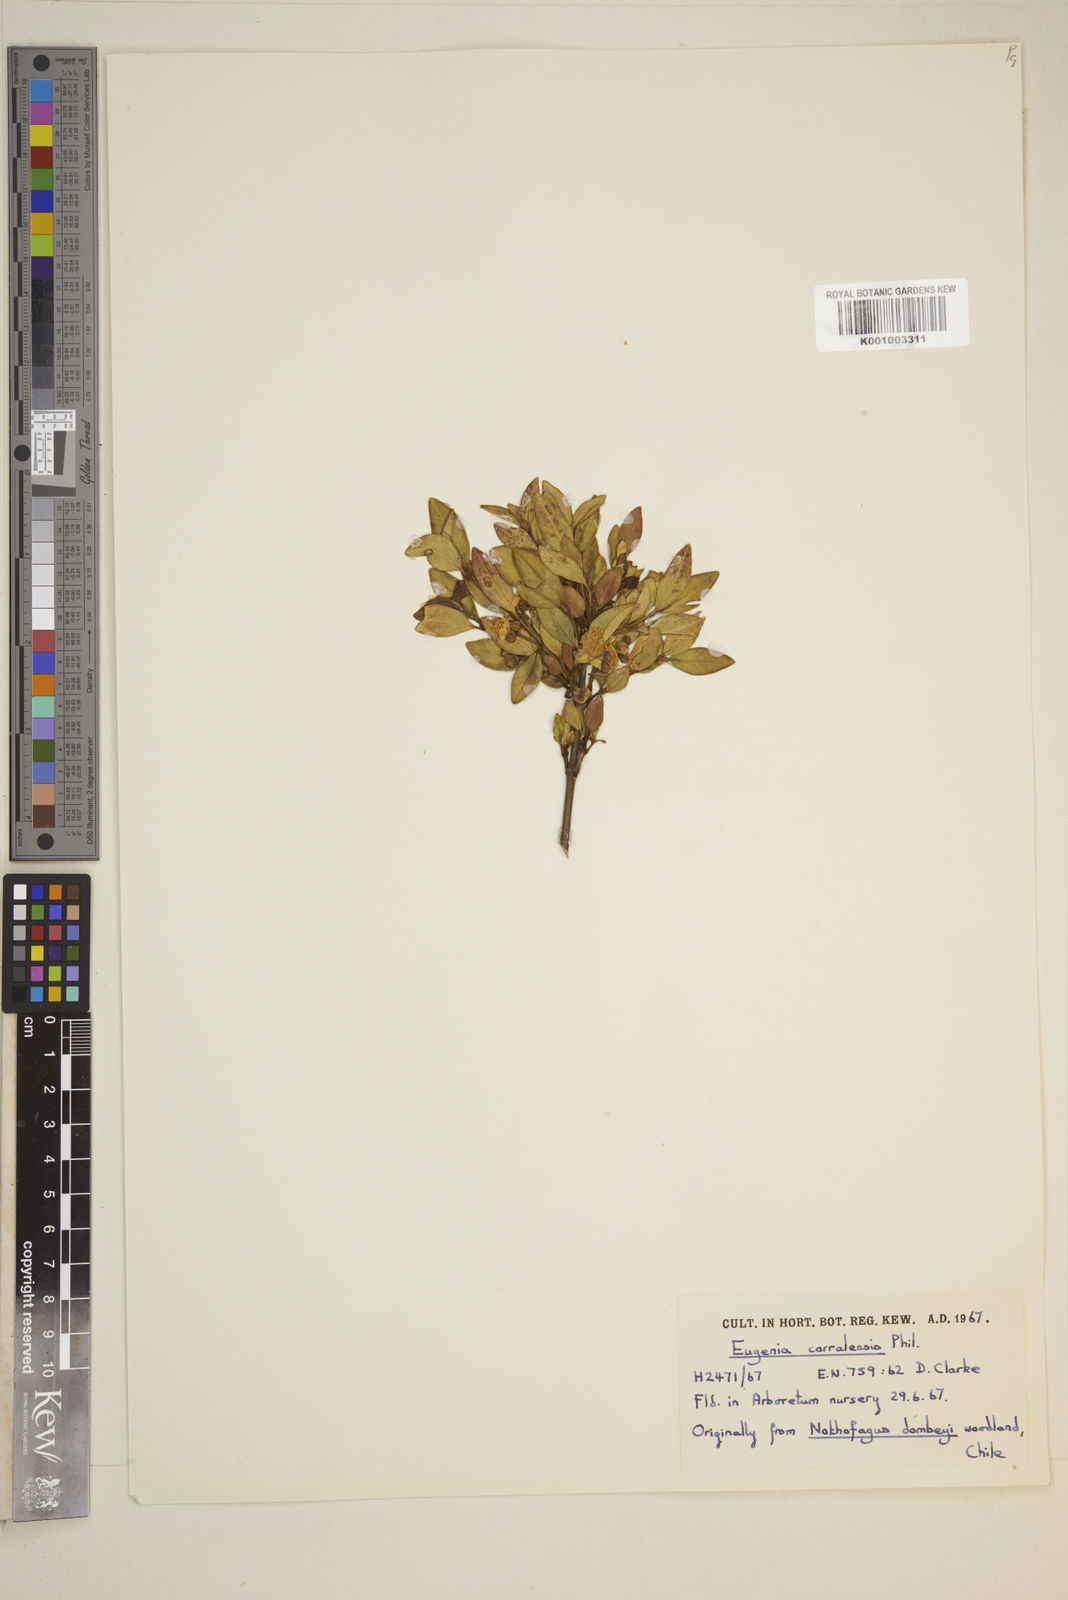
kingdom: Plantae
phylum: Tracheophyta
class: Magnoliopsida
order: Myrtales
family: Myrtaceae
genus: Myrceugenia
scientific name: Myrceugenia exsucca
